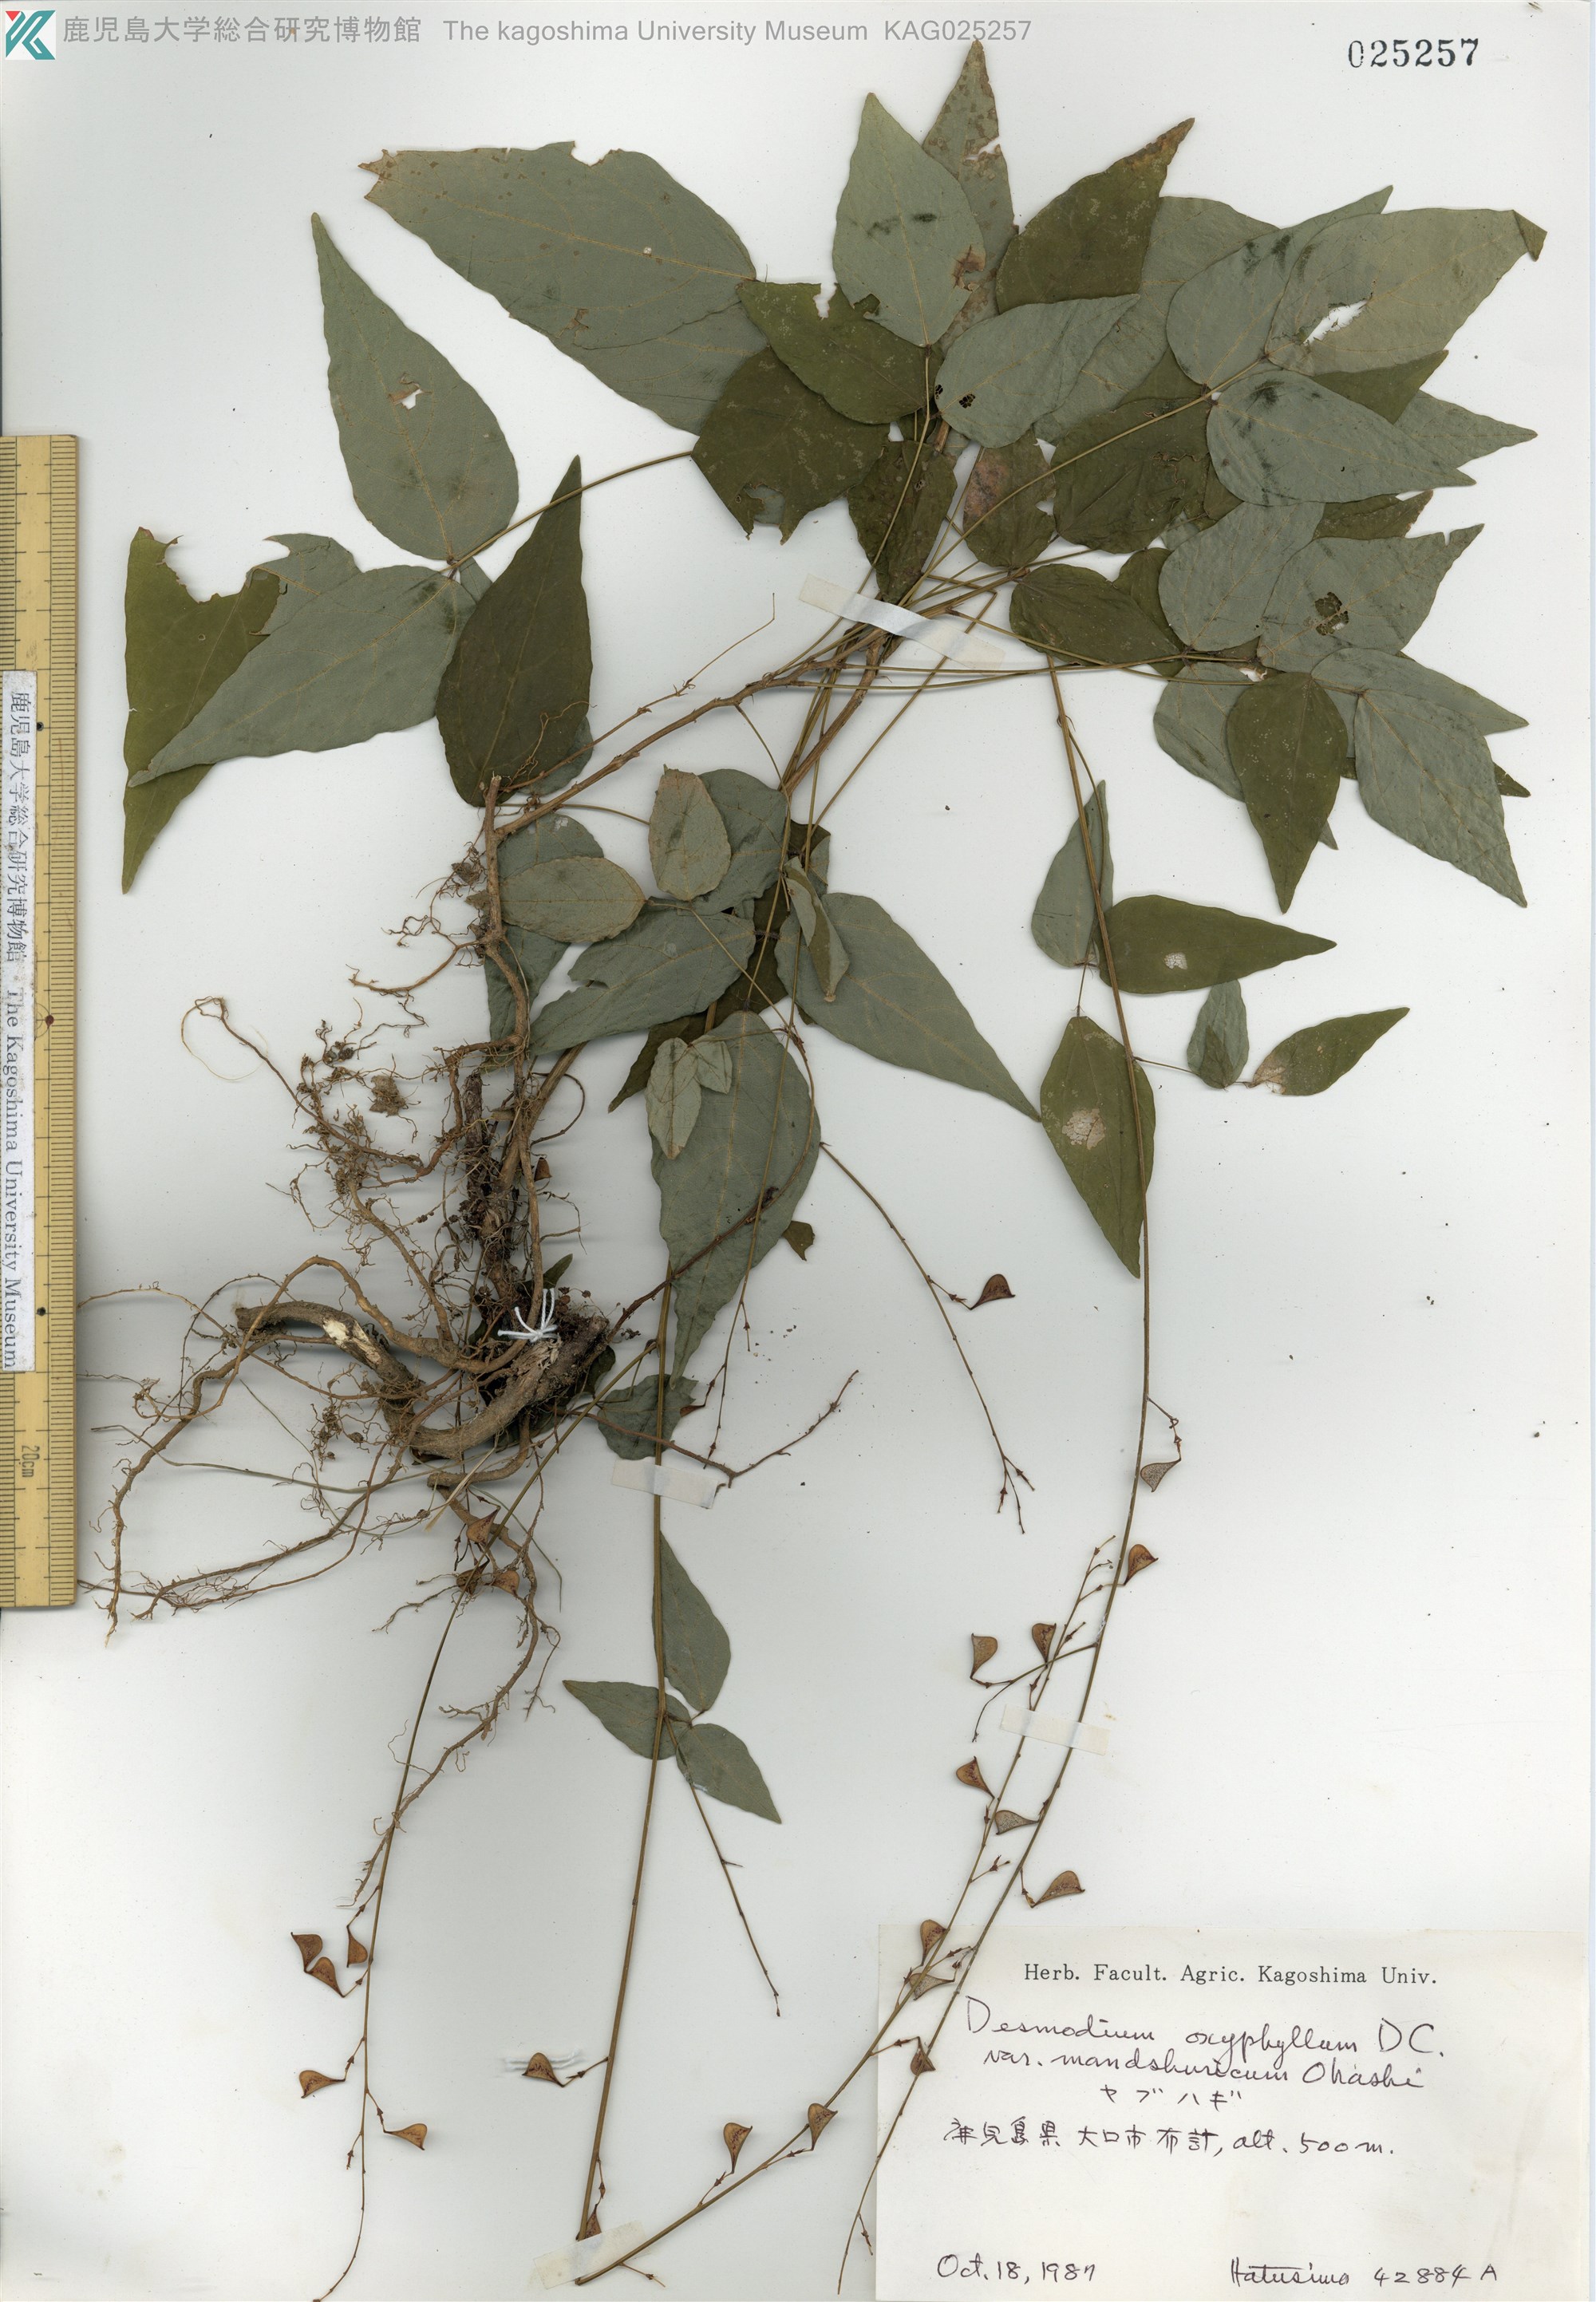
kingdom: Plantae
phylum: Tracheophyta
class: Magnoliopsida
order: Fabales
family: Fabaceae
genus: Hylodesmum
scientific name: Hylodesmum podocarpum
